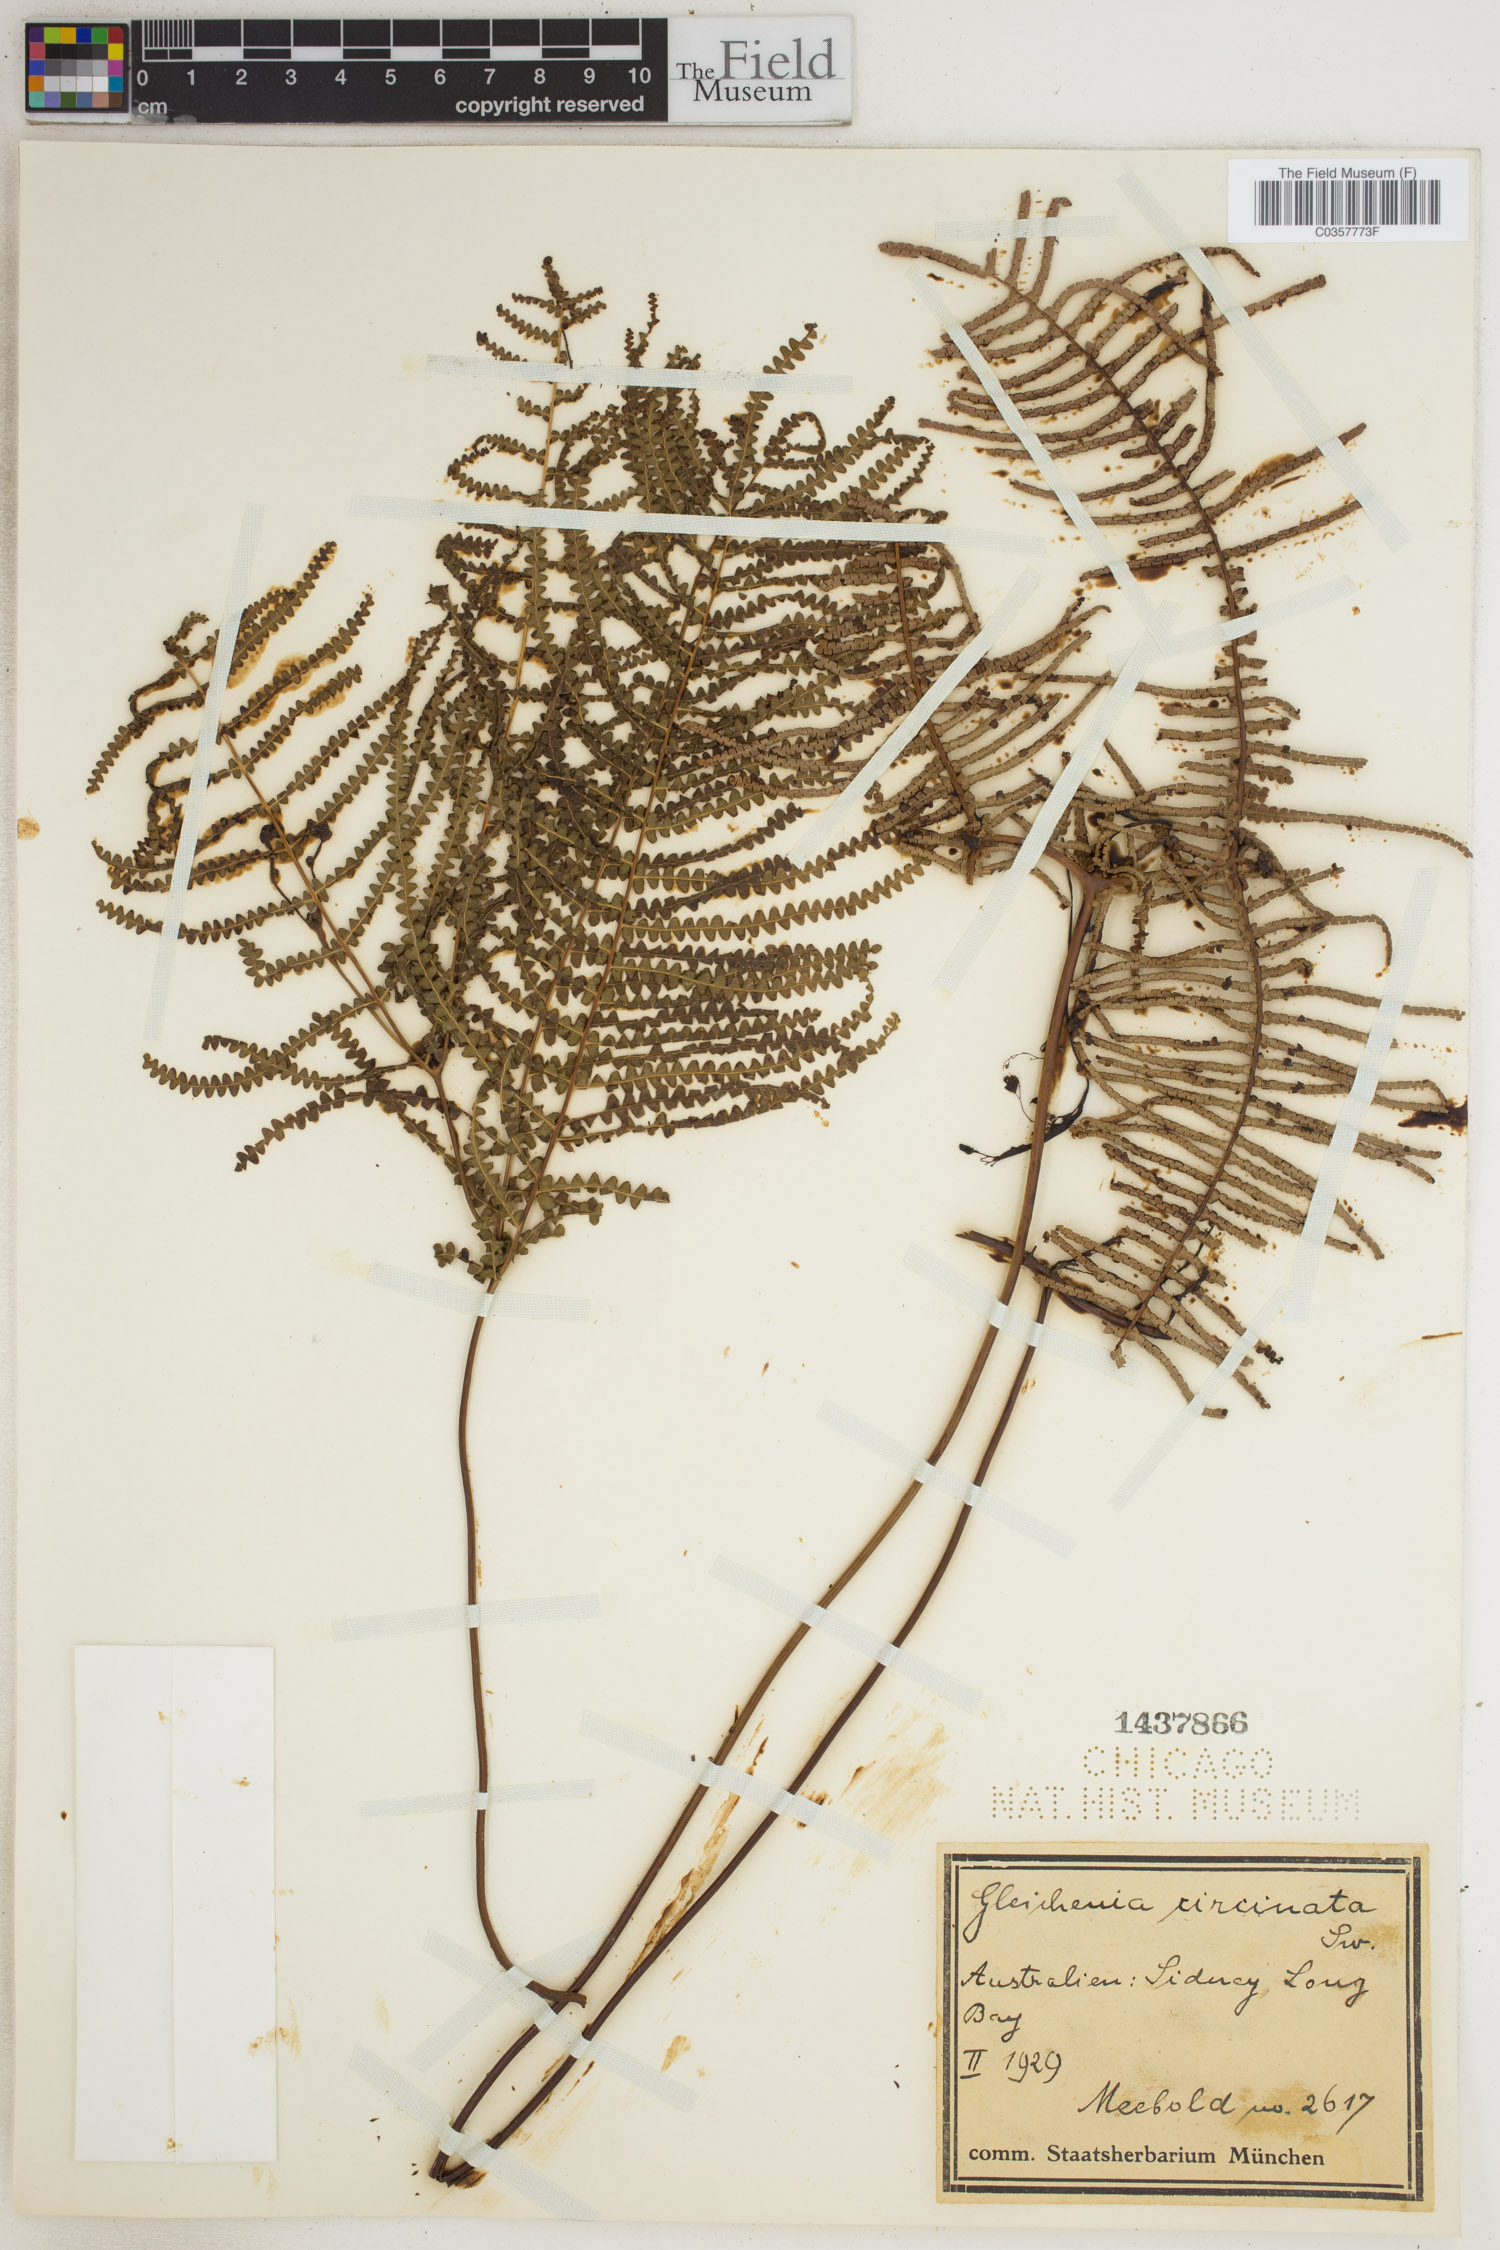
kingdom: Plantae
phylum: Tracheophyta
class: Polypodiopsida
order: Gleicheniales
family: Gleicheniaceae
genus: Gleichenia
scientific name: Gleichenia circinnata
